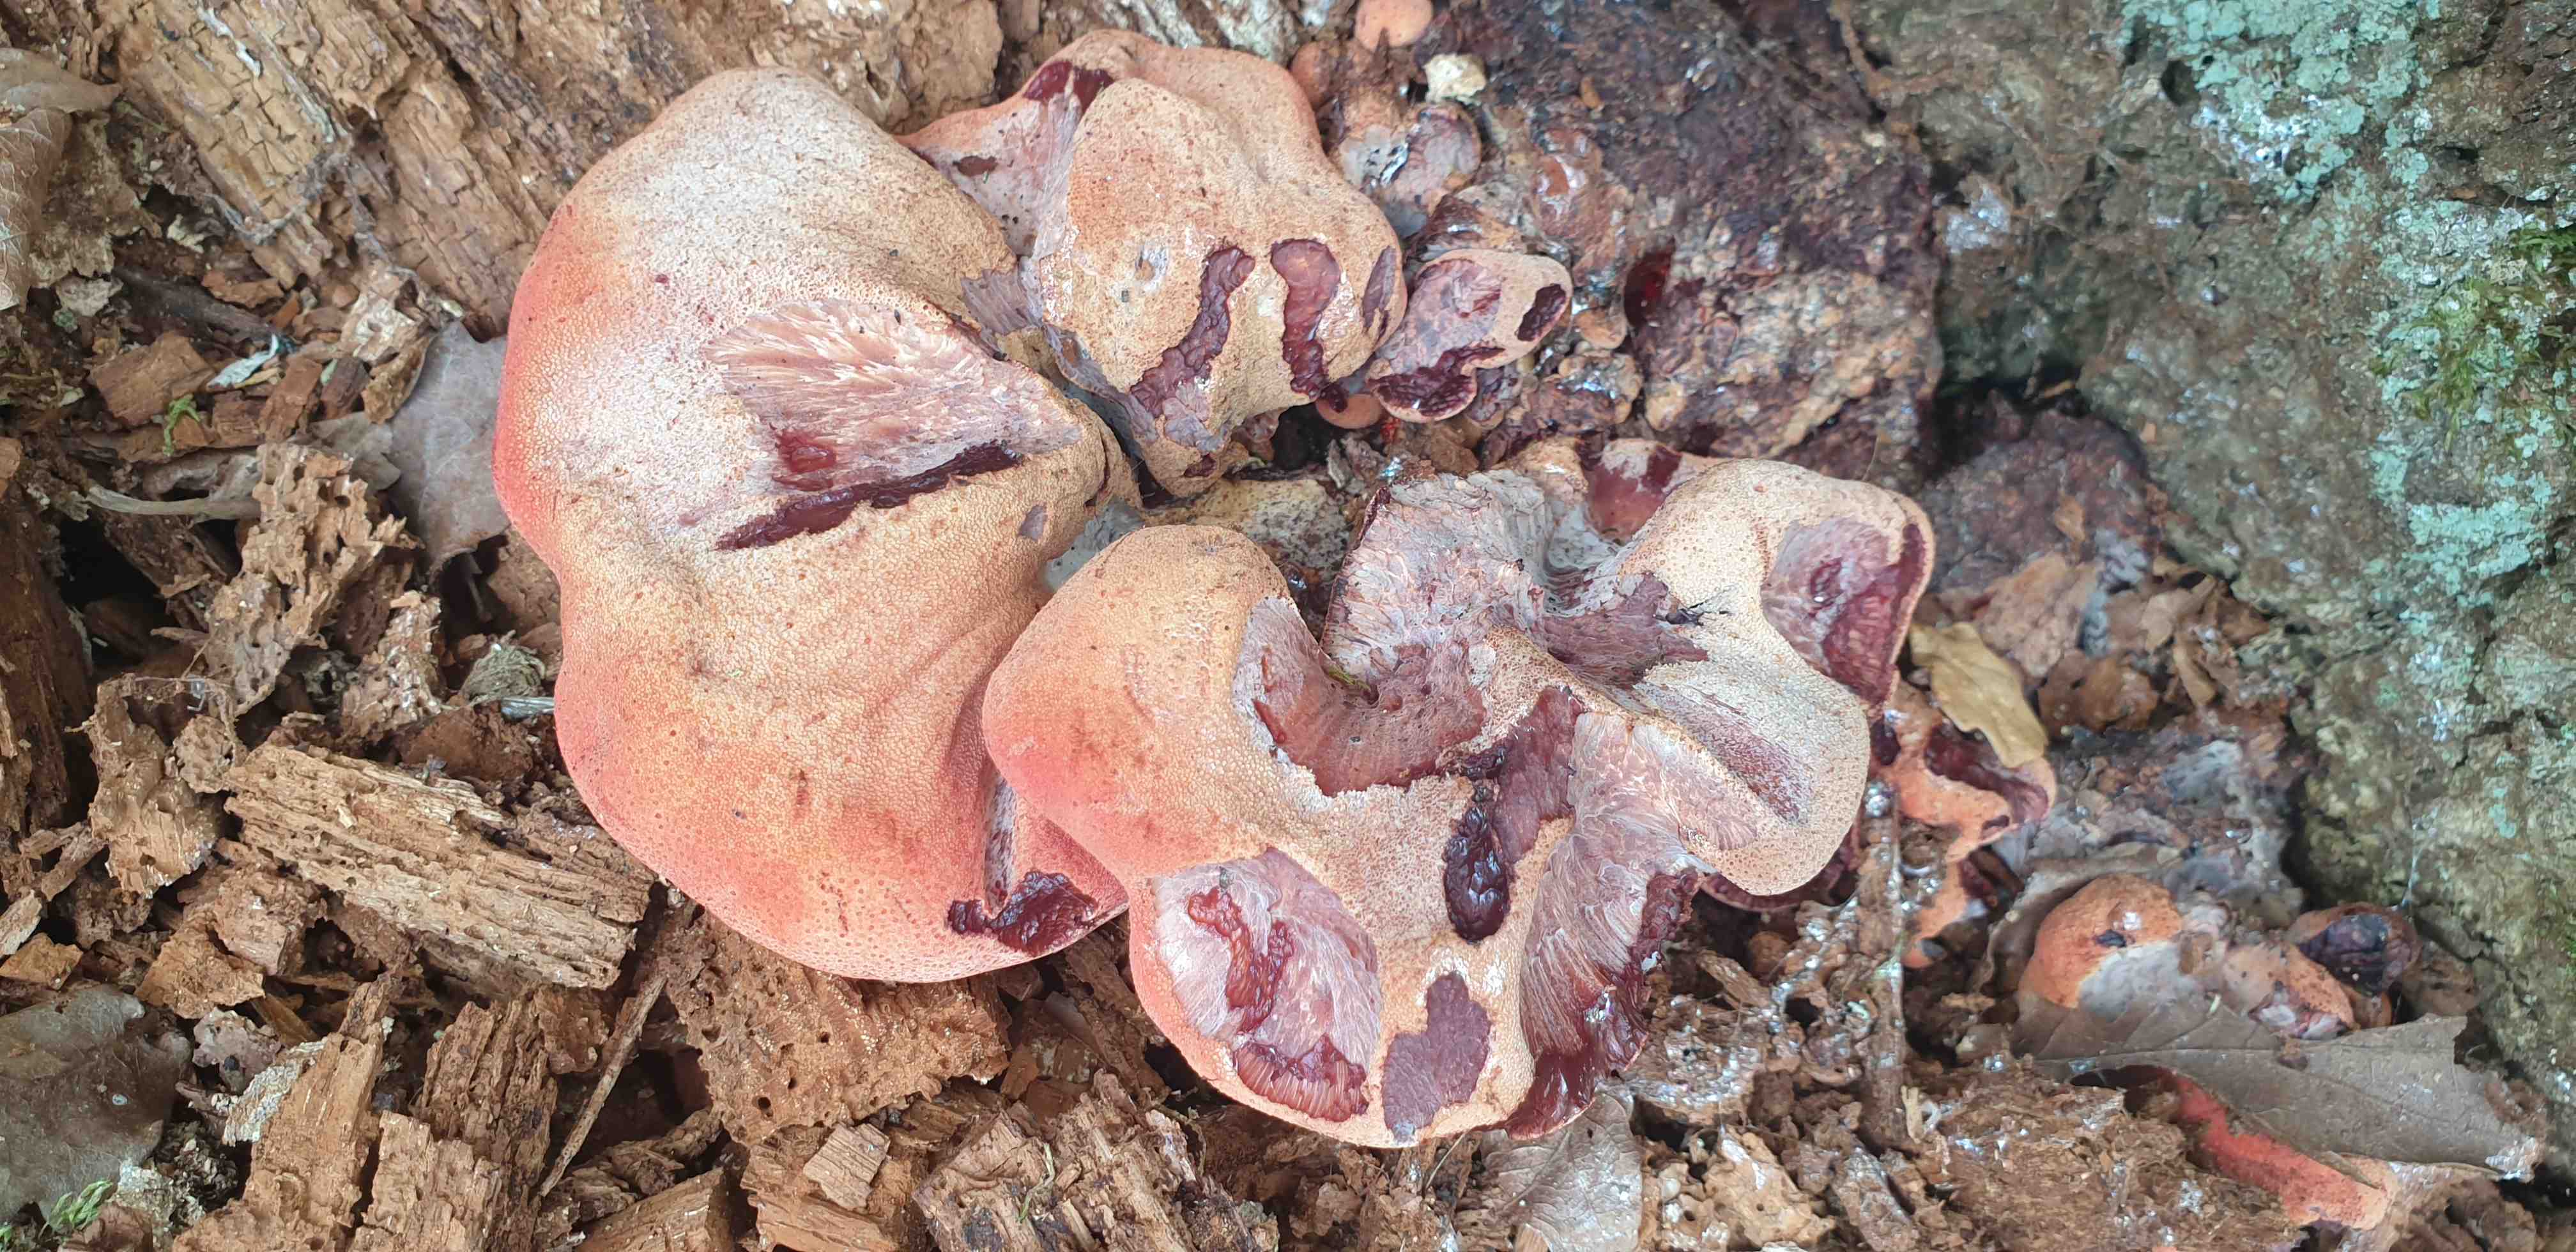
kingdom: Fungi
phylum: Basidiomycota
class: Agaricomycetes
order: Agaricales
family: Fistulinaceae
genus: Fistulina
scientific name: Fistulina hepatica
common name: oksetunge
